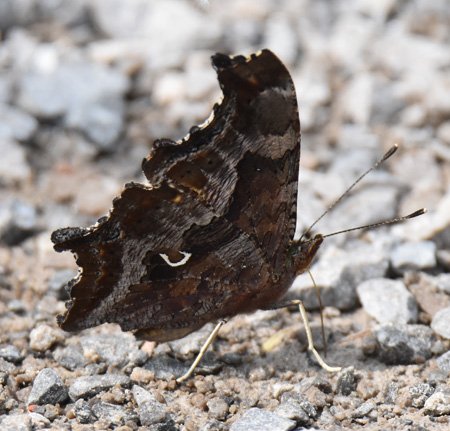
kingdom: Animalia
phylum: Arthropoda
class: Insecta
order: Lepidoptera
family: Nymphalidae
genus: Polygonia
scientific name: Polygonia comma
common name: Eastern Comma
